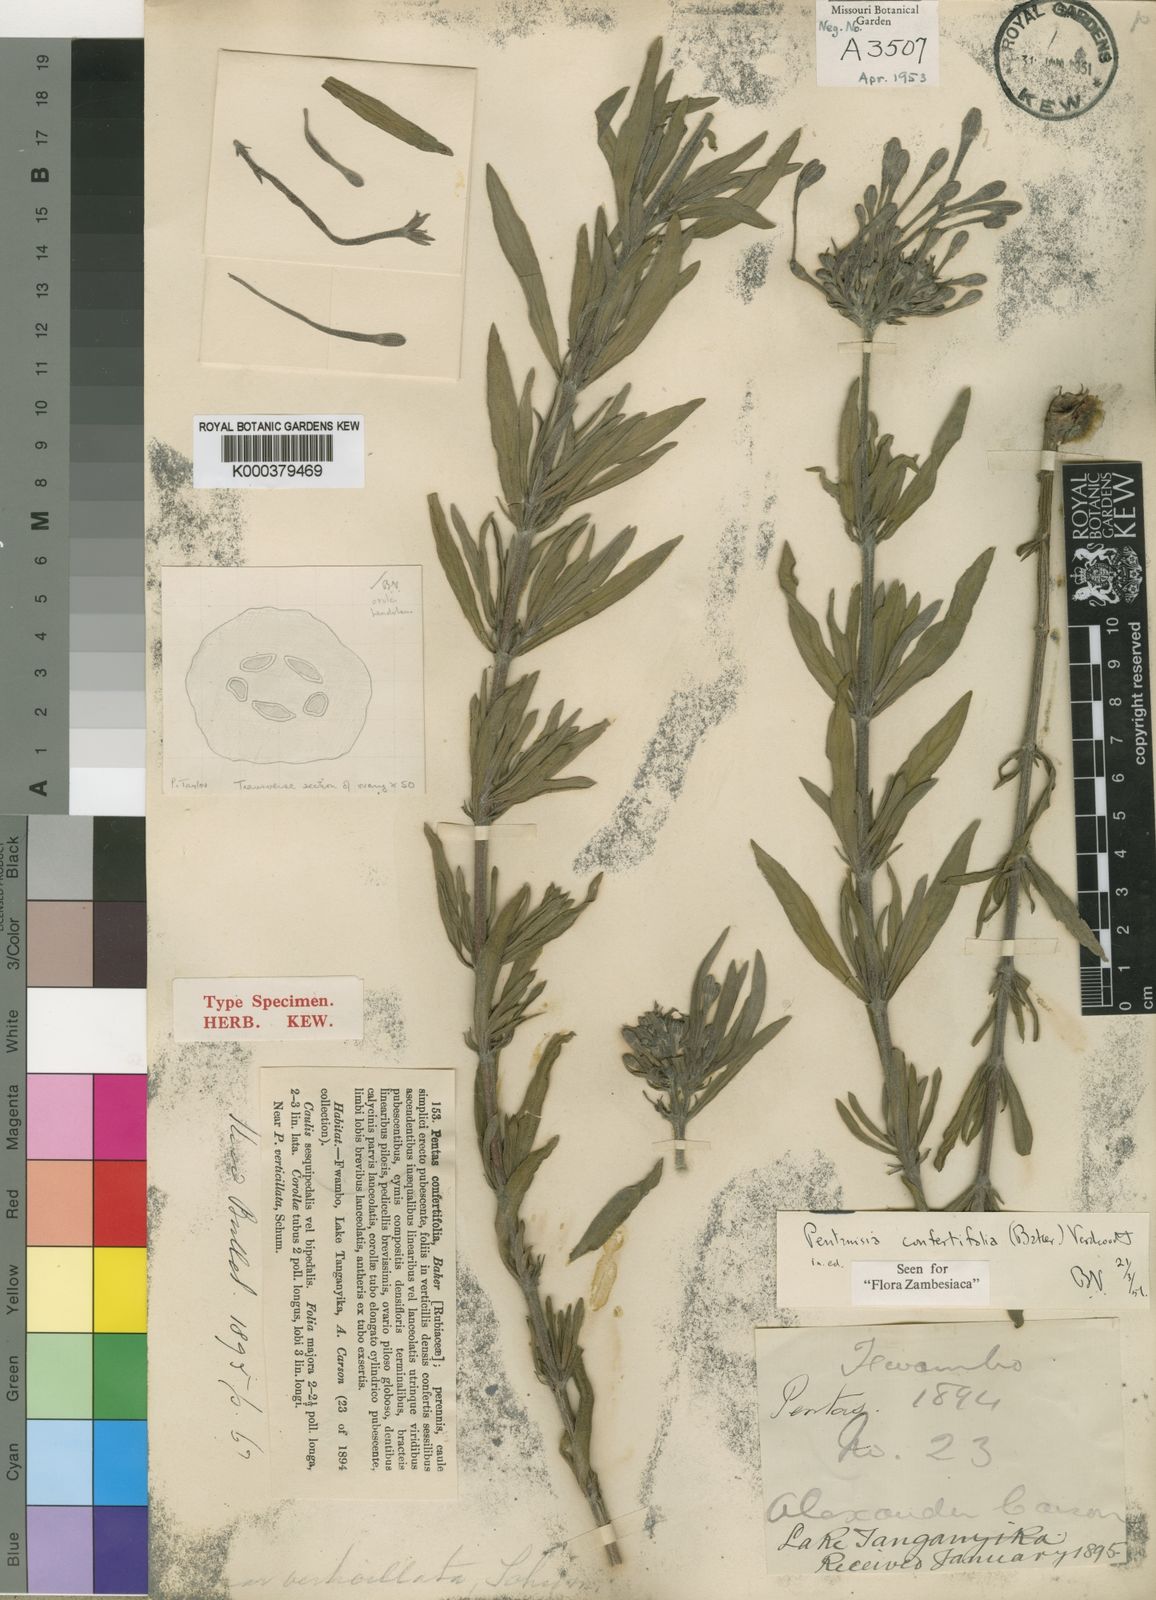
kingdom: Plantae
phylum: Tracheophyta
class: Magnoliopsida
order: Gentianales
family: Rubiaceae
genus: Pentanisia
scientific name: Pentanisia confertifolia
